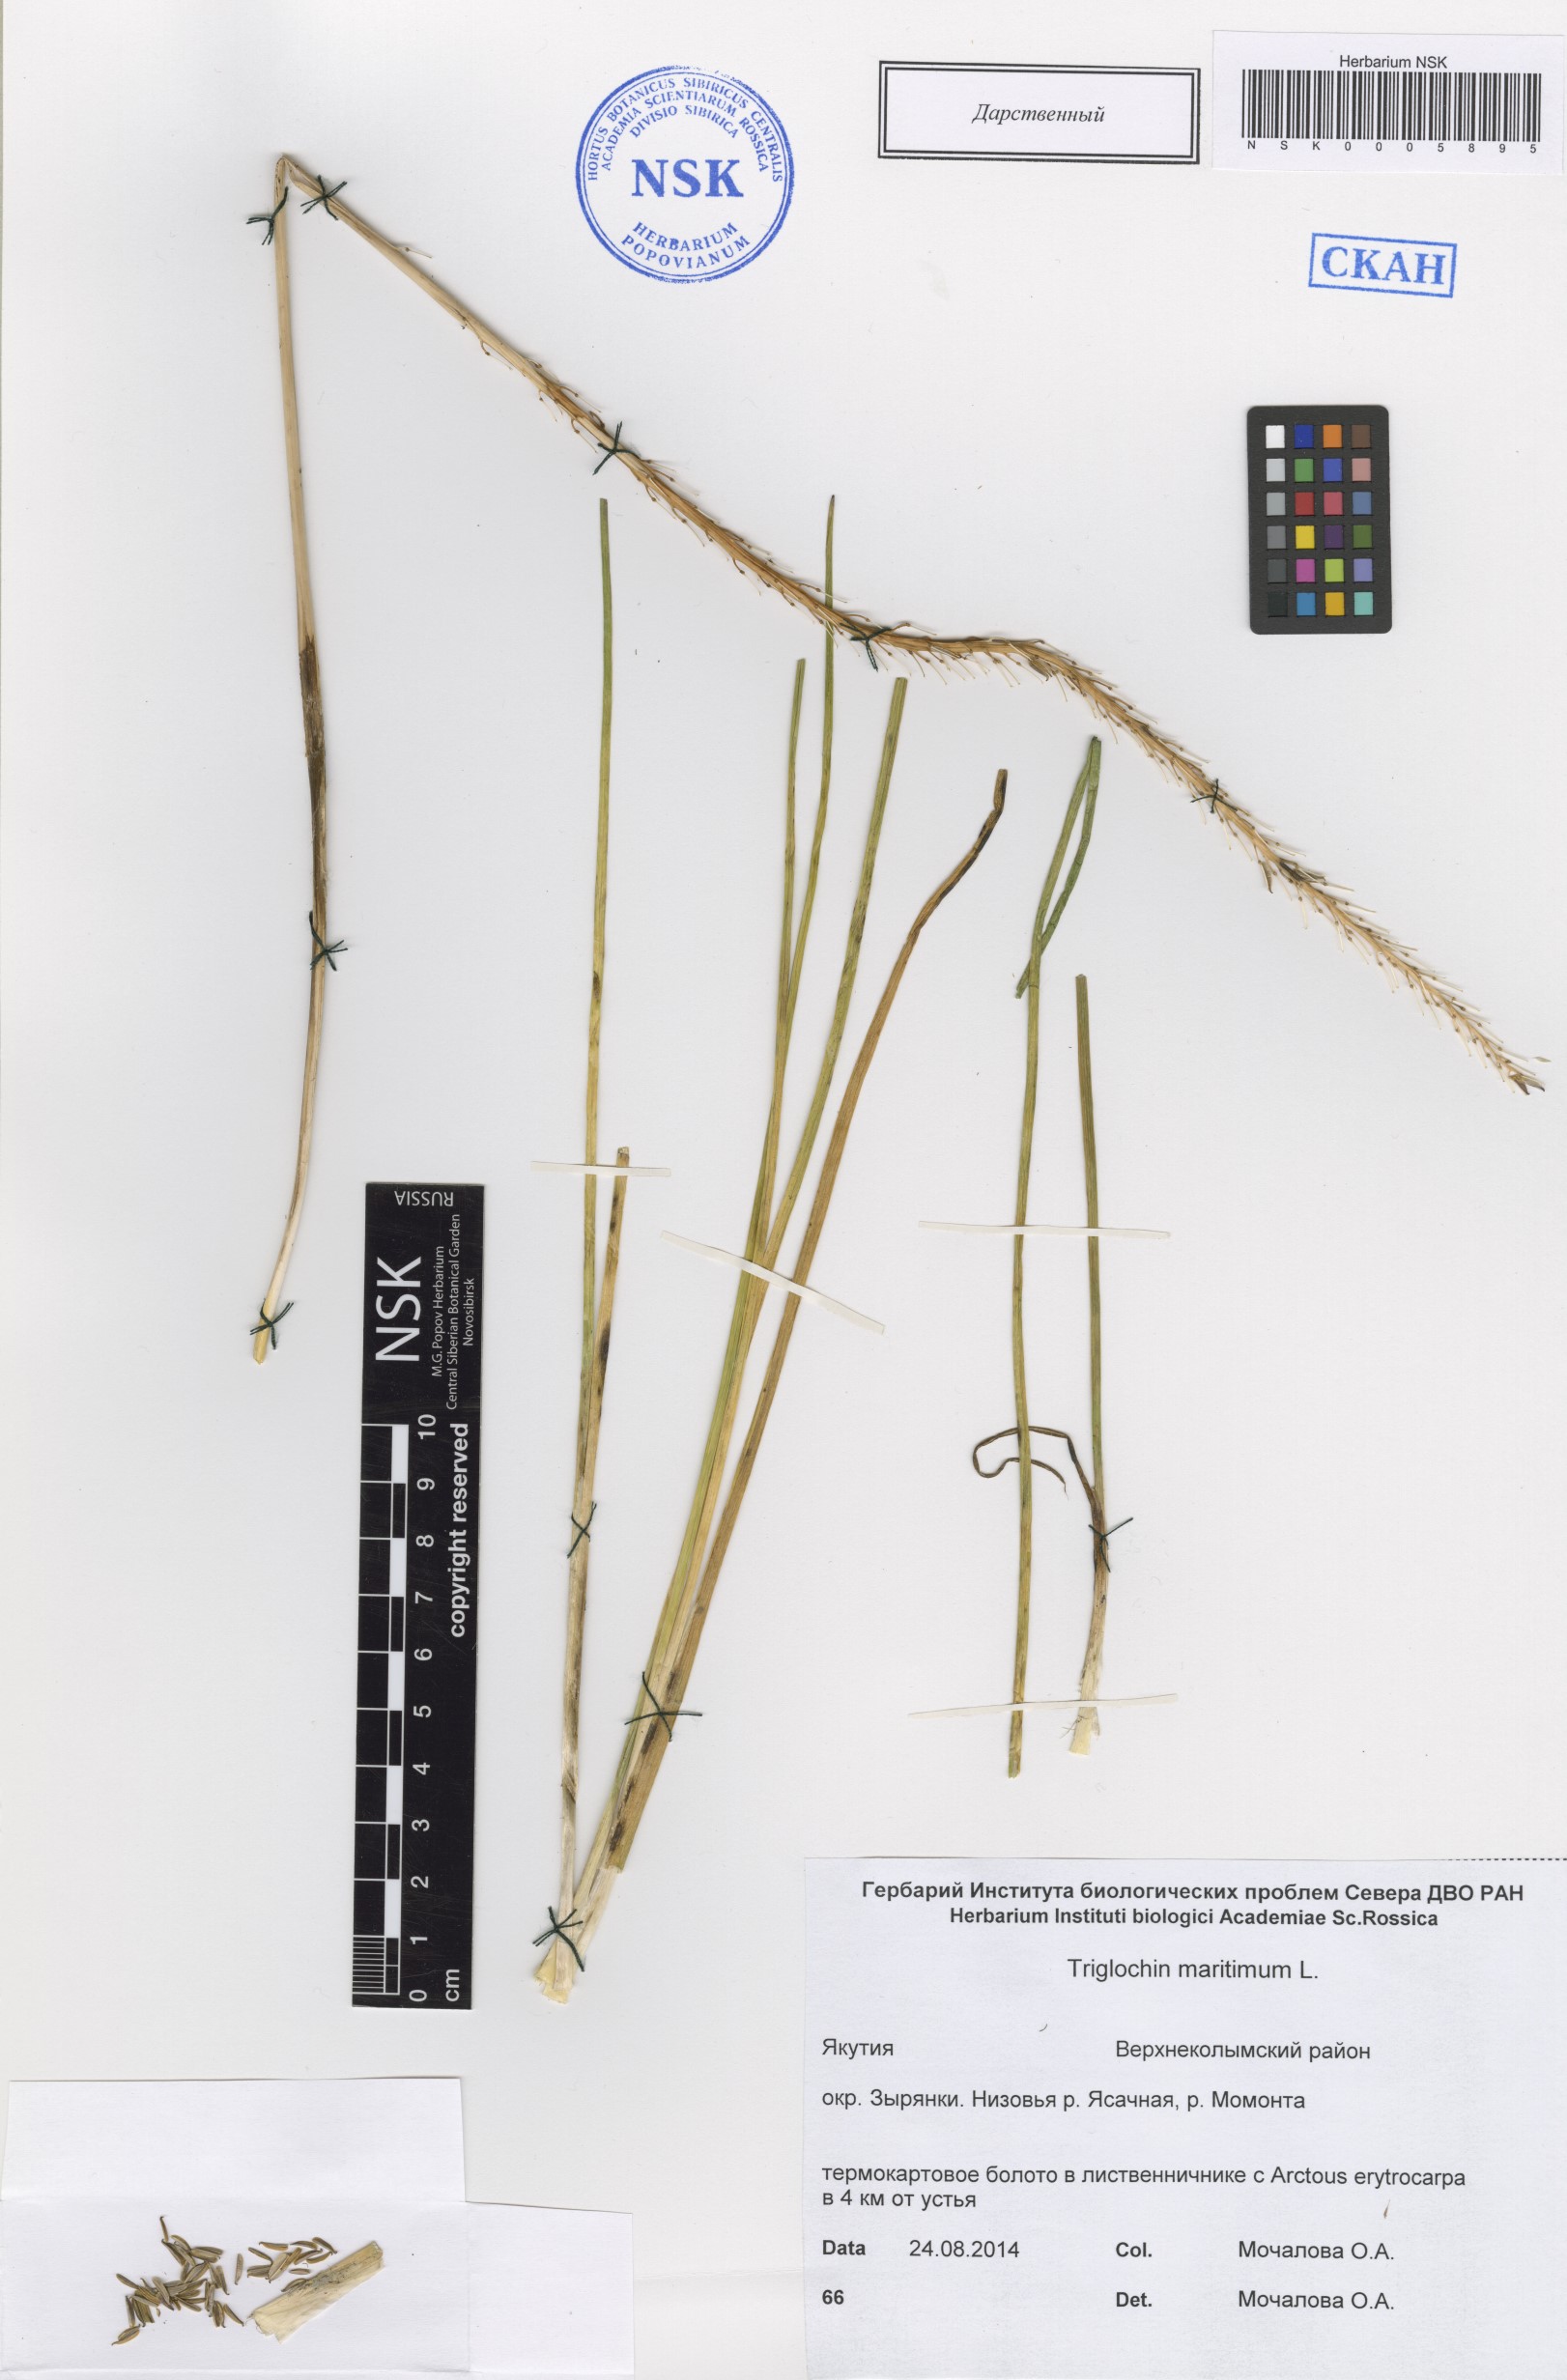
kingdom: Plantae
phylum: Tracheophyta
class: Liliopsida
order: Alismatales
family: Juncaginaceae
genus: Triglochin
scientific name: Triglochin maritima
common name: Sea arrowgrass
